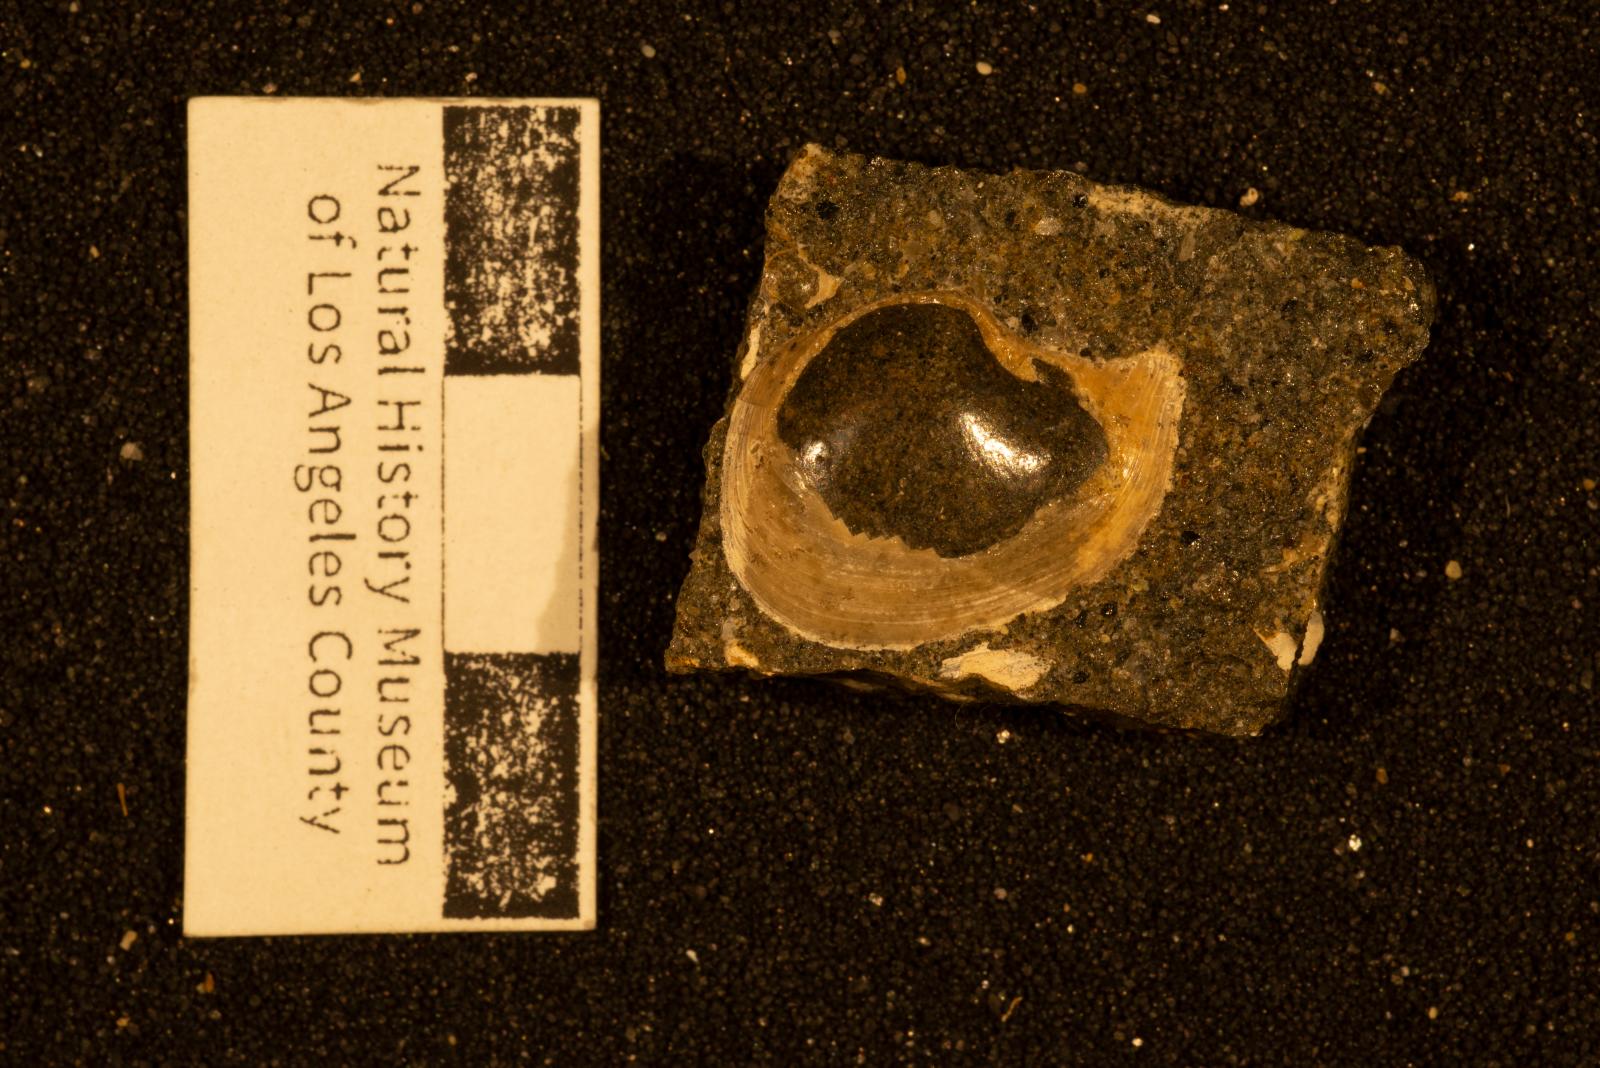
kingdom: Animalia
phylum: Mollusca
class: Bivalvia
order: Cardiida
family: Tancrediidae
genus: Meekia
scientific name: Meekia mygale
